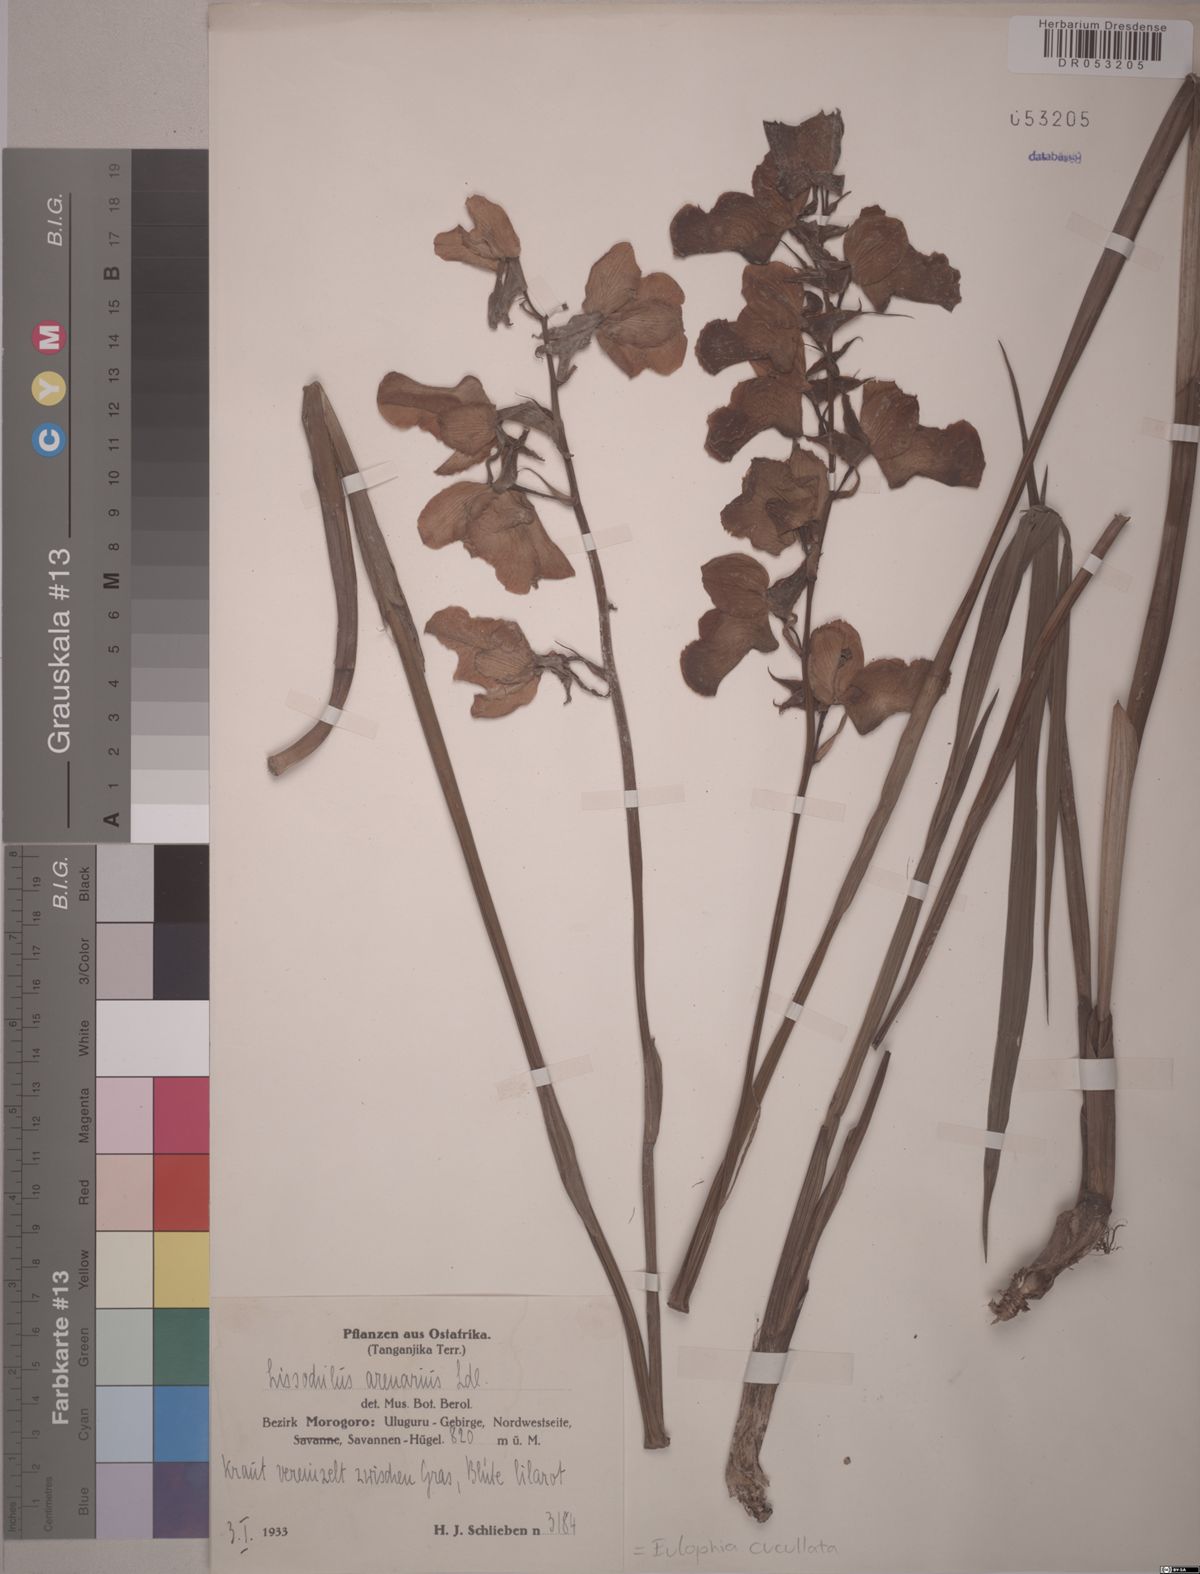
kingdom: Plantae
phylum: Tracheophyta
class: Liliopsida
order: Asparagales
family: Orchidaceae
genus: Eulophia
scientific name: Eulophia cucullata
